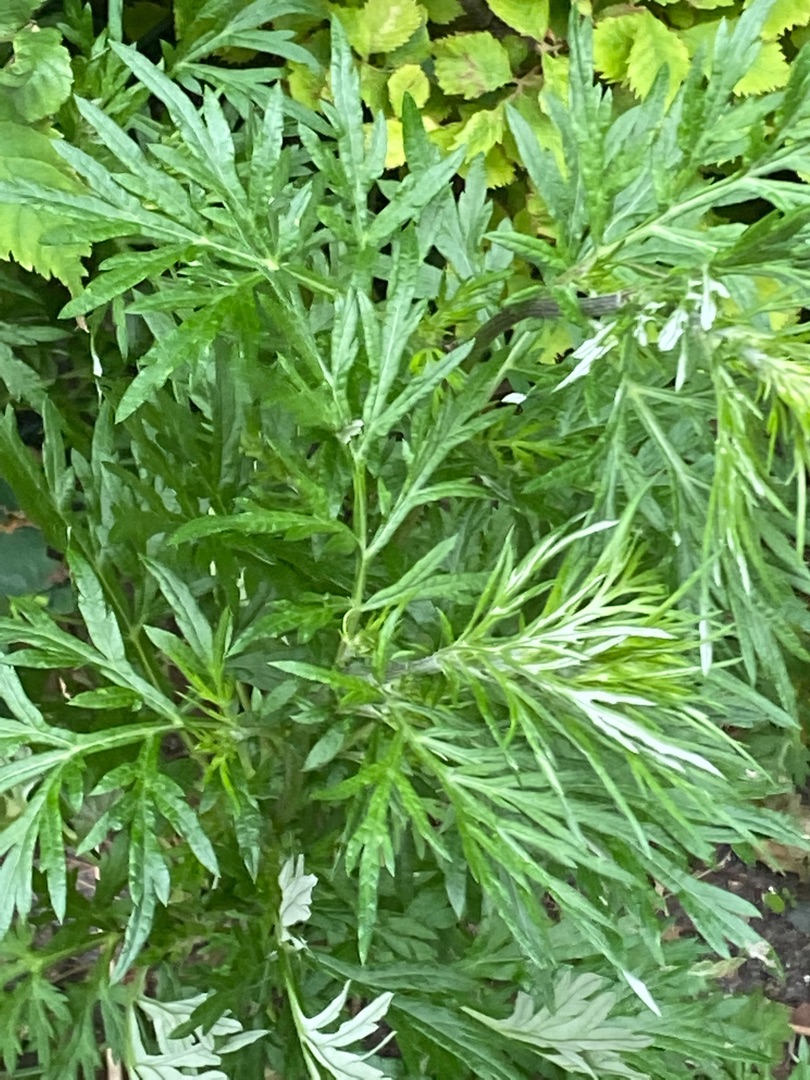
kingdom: Plantae
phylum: Tracheophyta
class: Magnoliopsida
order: Asterales
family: Asteraceae
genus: Artemisia
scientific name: Artemisia vulgaris
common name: Grå-bynke
